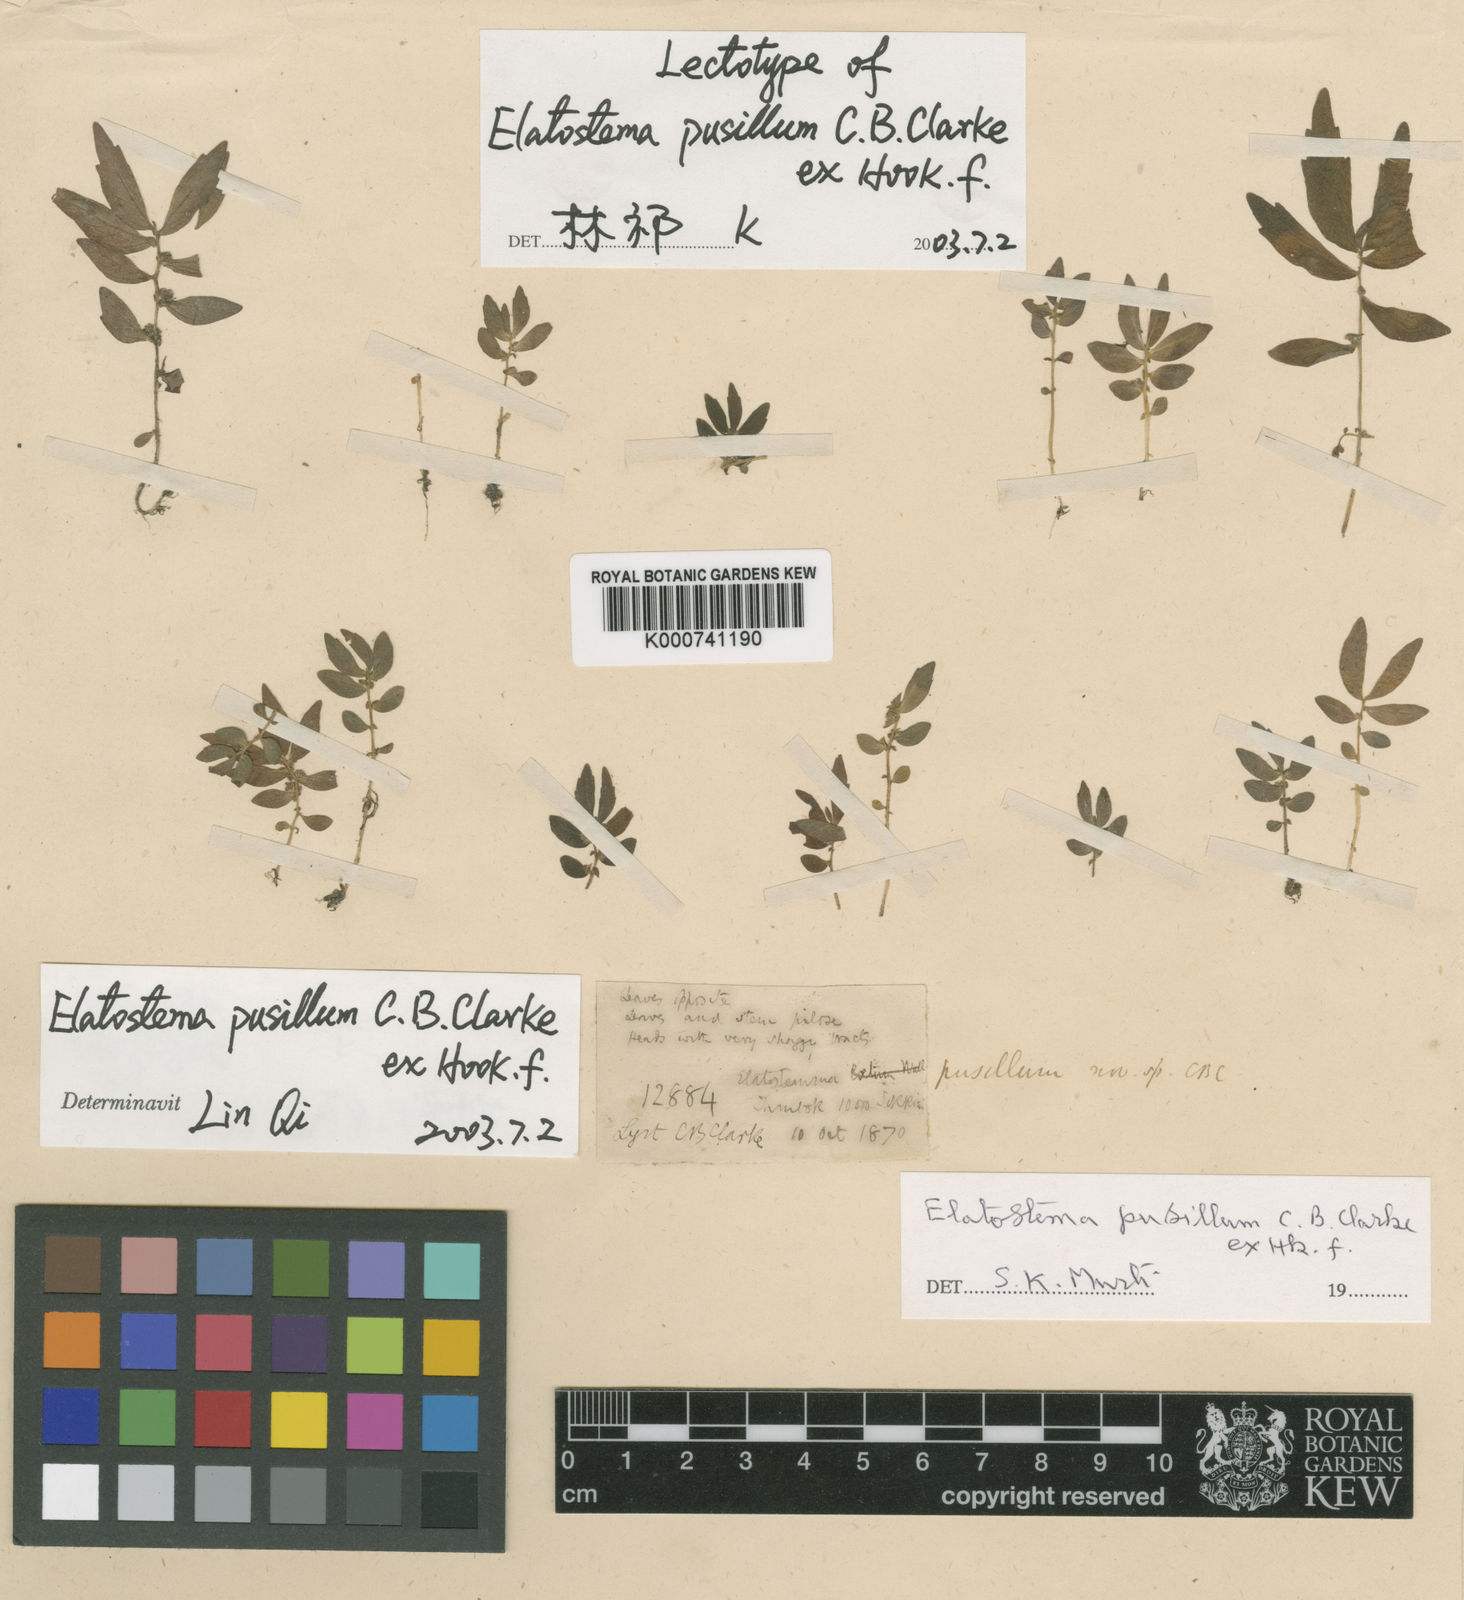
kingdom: Plantae
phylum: Tracheophyta
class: Magnoliopsida
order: Rosales
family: Urticaceae
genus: Elatostema
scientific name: Elatostema pusillum
